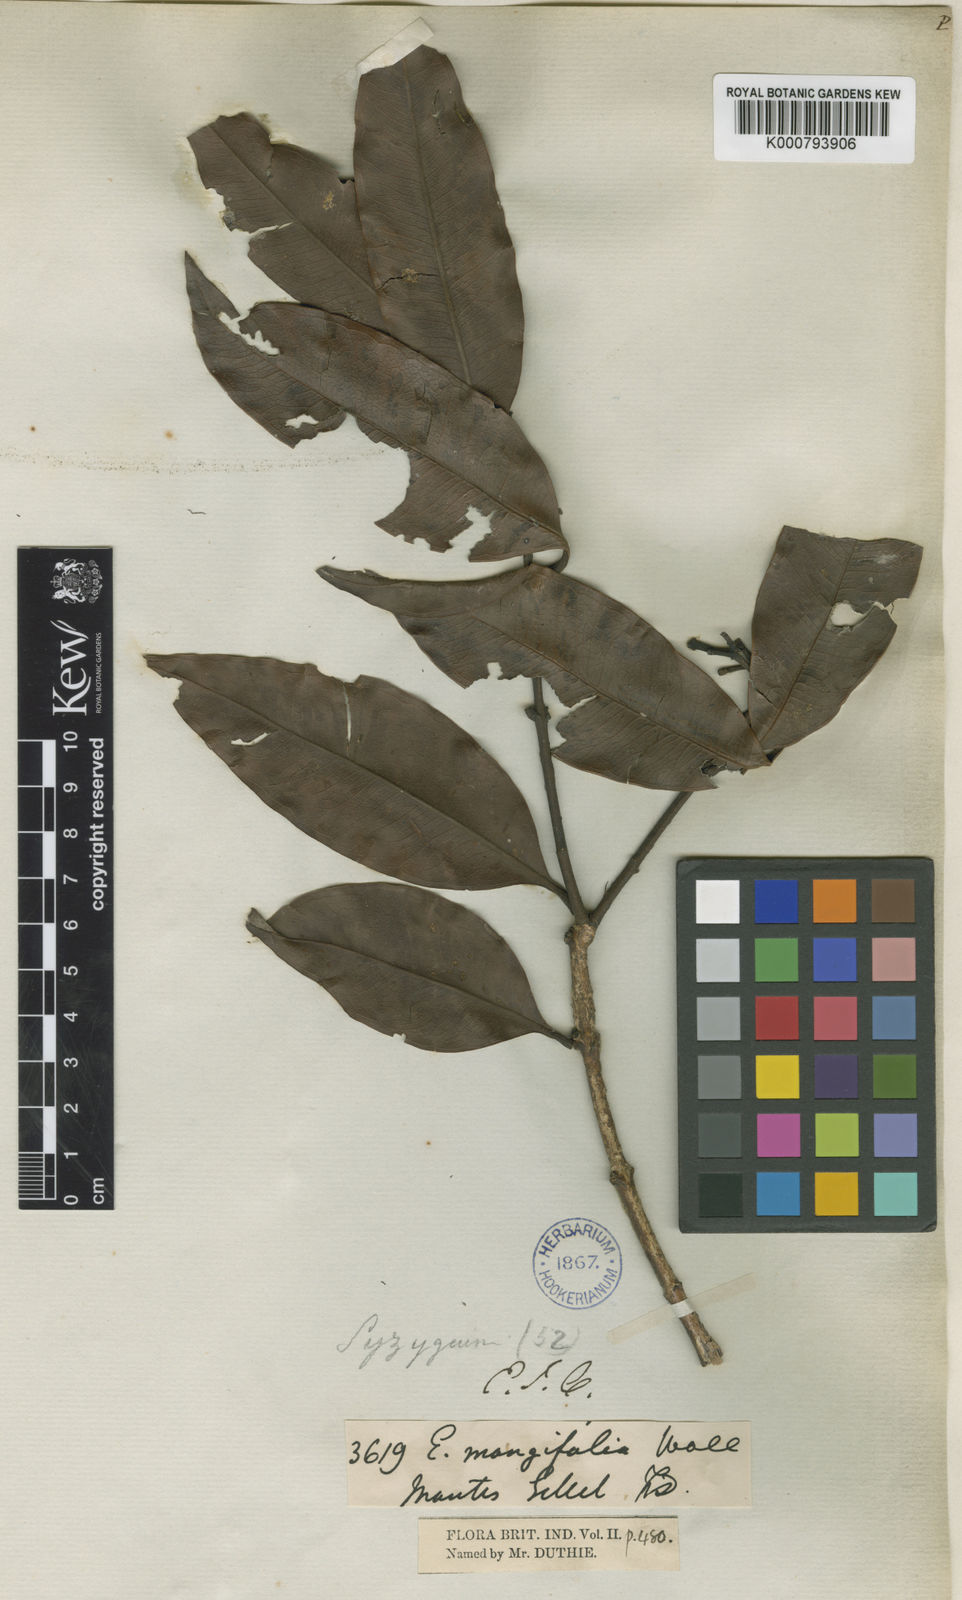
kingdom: Plantae
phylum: Tracheophyta
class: Magnoliopsida
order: Myrtales
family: Myrtaceae
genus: Syzygium
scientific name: Syzygium
